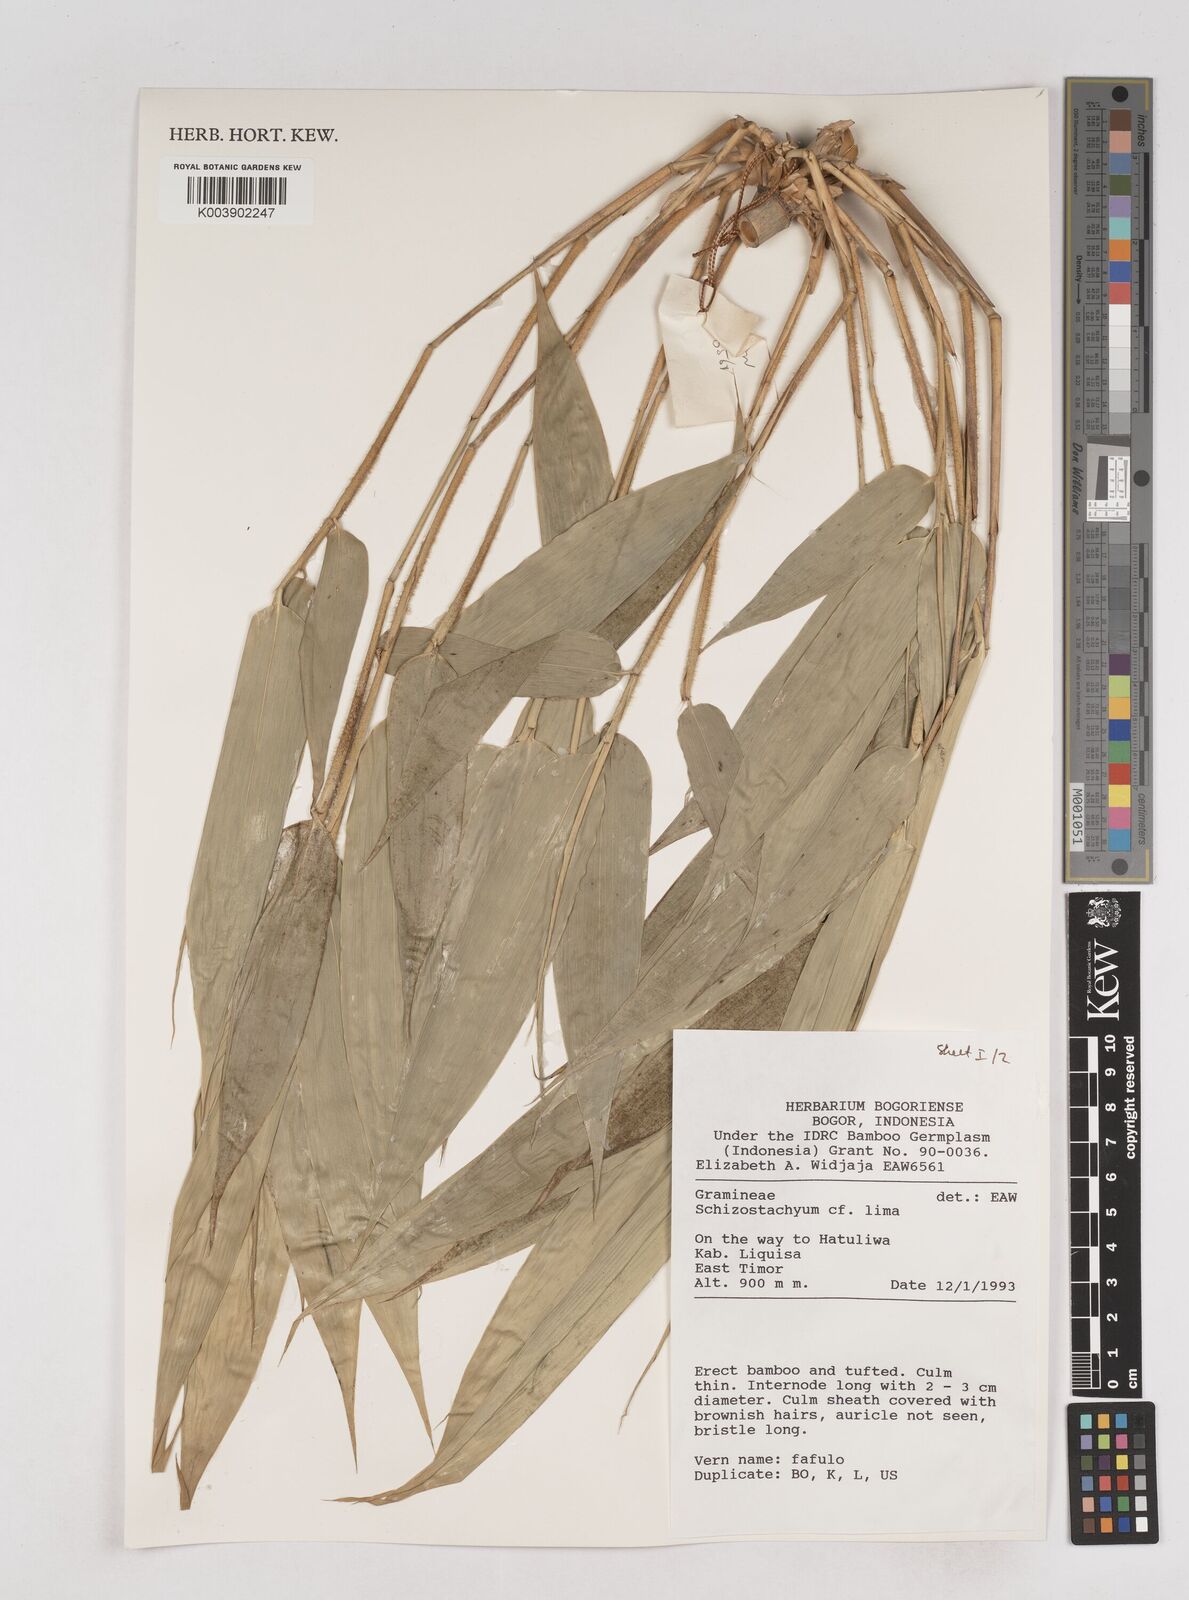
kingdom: Plantae
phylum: Tracheophyta
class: Liliopsida
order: Poales
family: Poaceae
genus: Schizostachyum
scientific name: Schizostachyum lima
